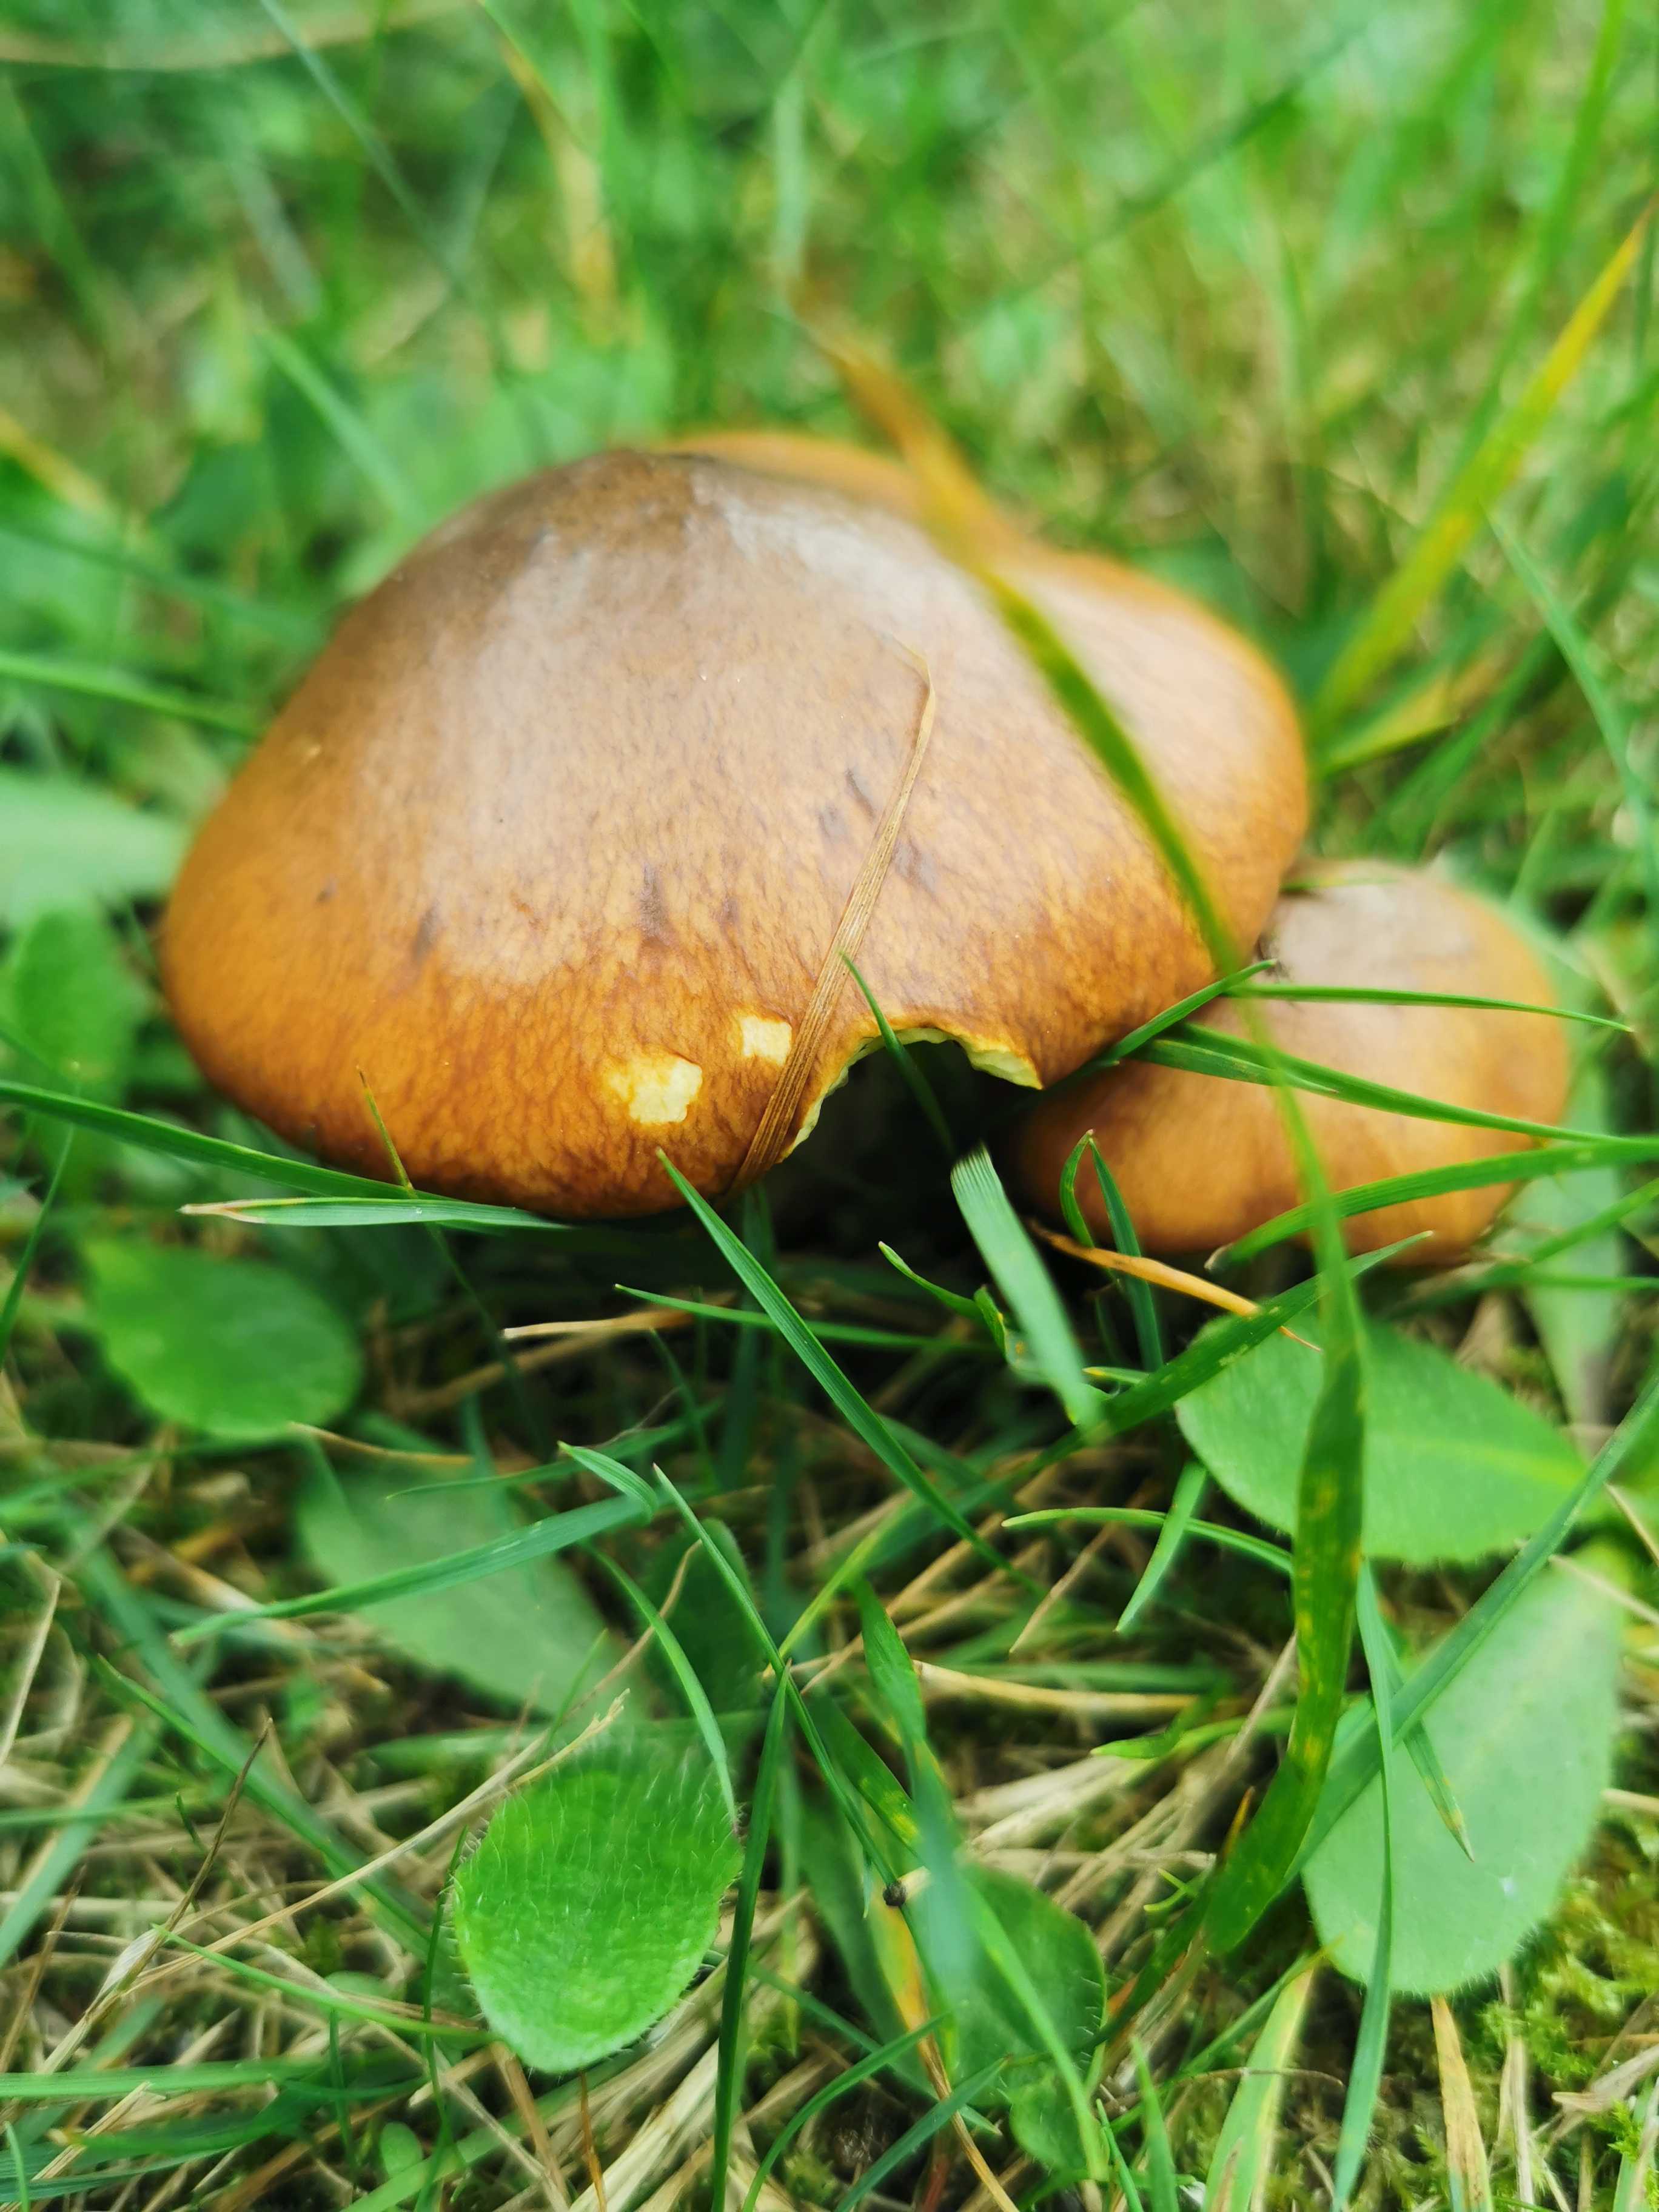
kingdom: Fungi
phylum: Basidiomycota
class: Agaricomycetes
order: Boletales
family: Suillaceae
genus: Suillus
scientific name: Suillus luteus
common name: brungul slimrørhat
